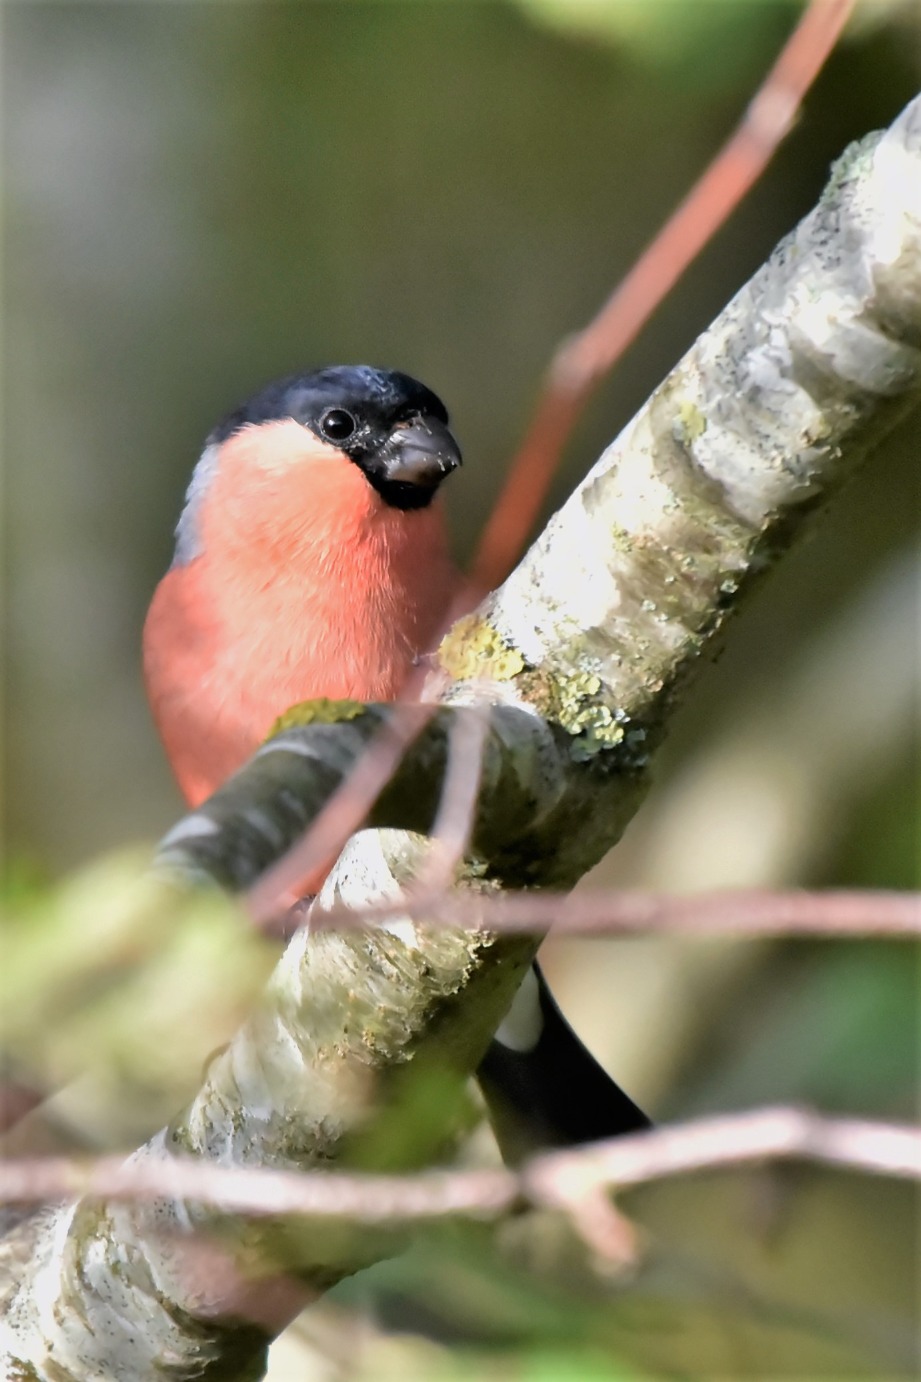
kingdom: Animalia
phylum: Chordata
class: Aves
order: Passeriformes
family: Fringillidae
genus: Pyrrhula
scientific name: Pyrrhula pyrrhula
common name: Dompap
